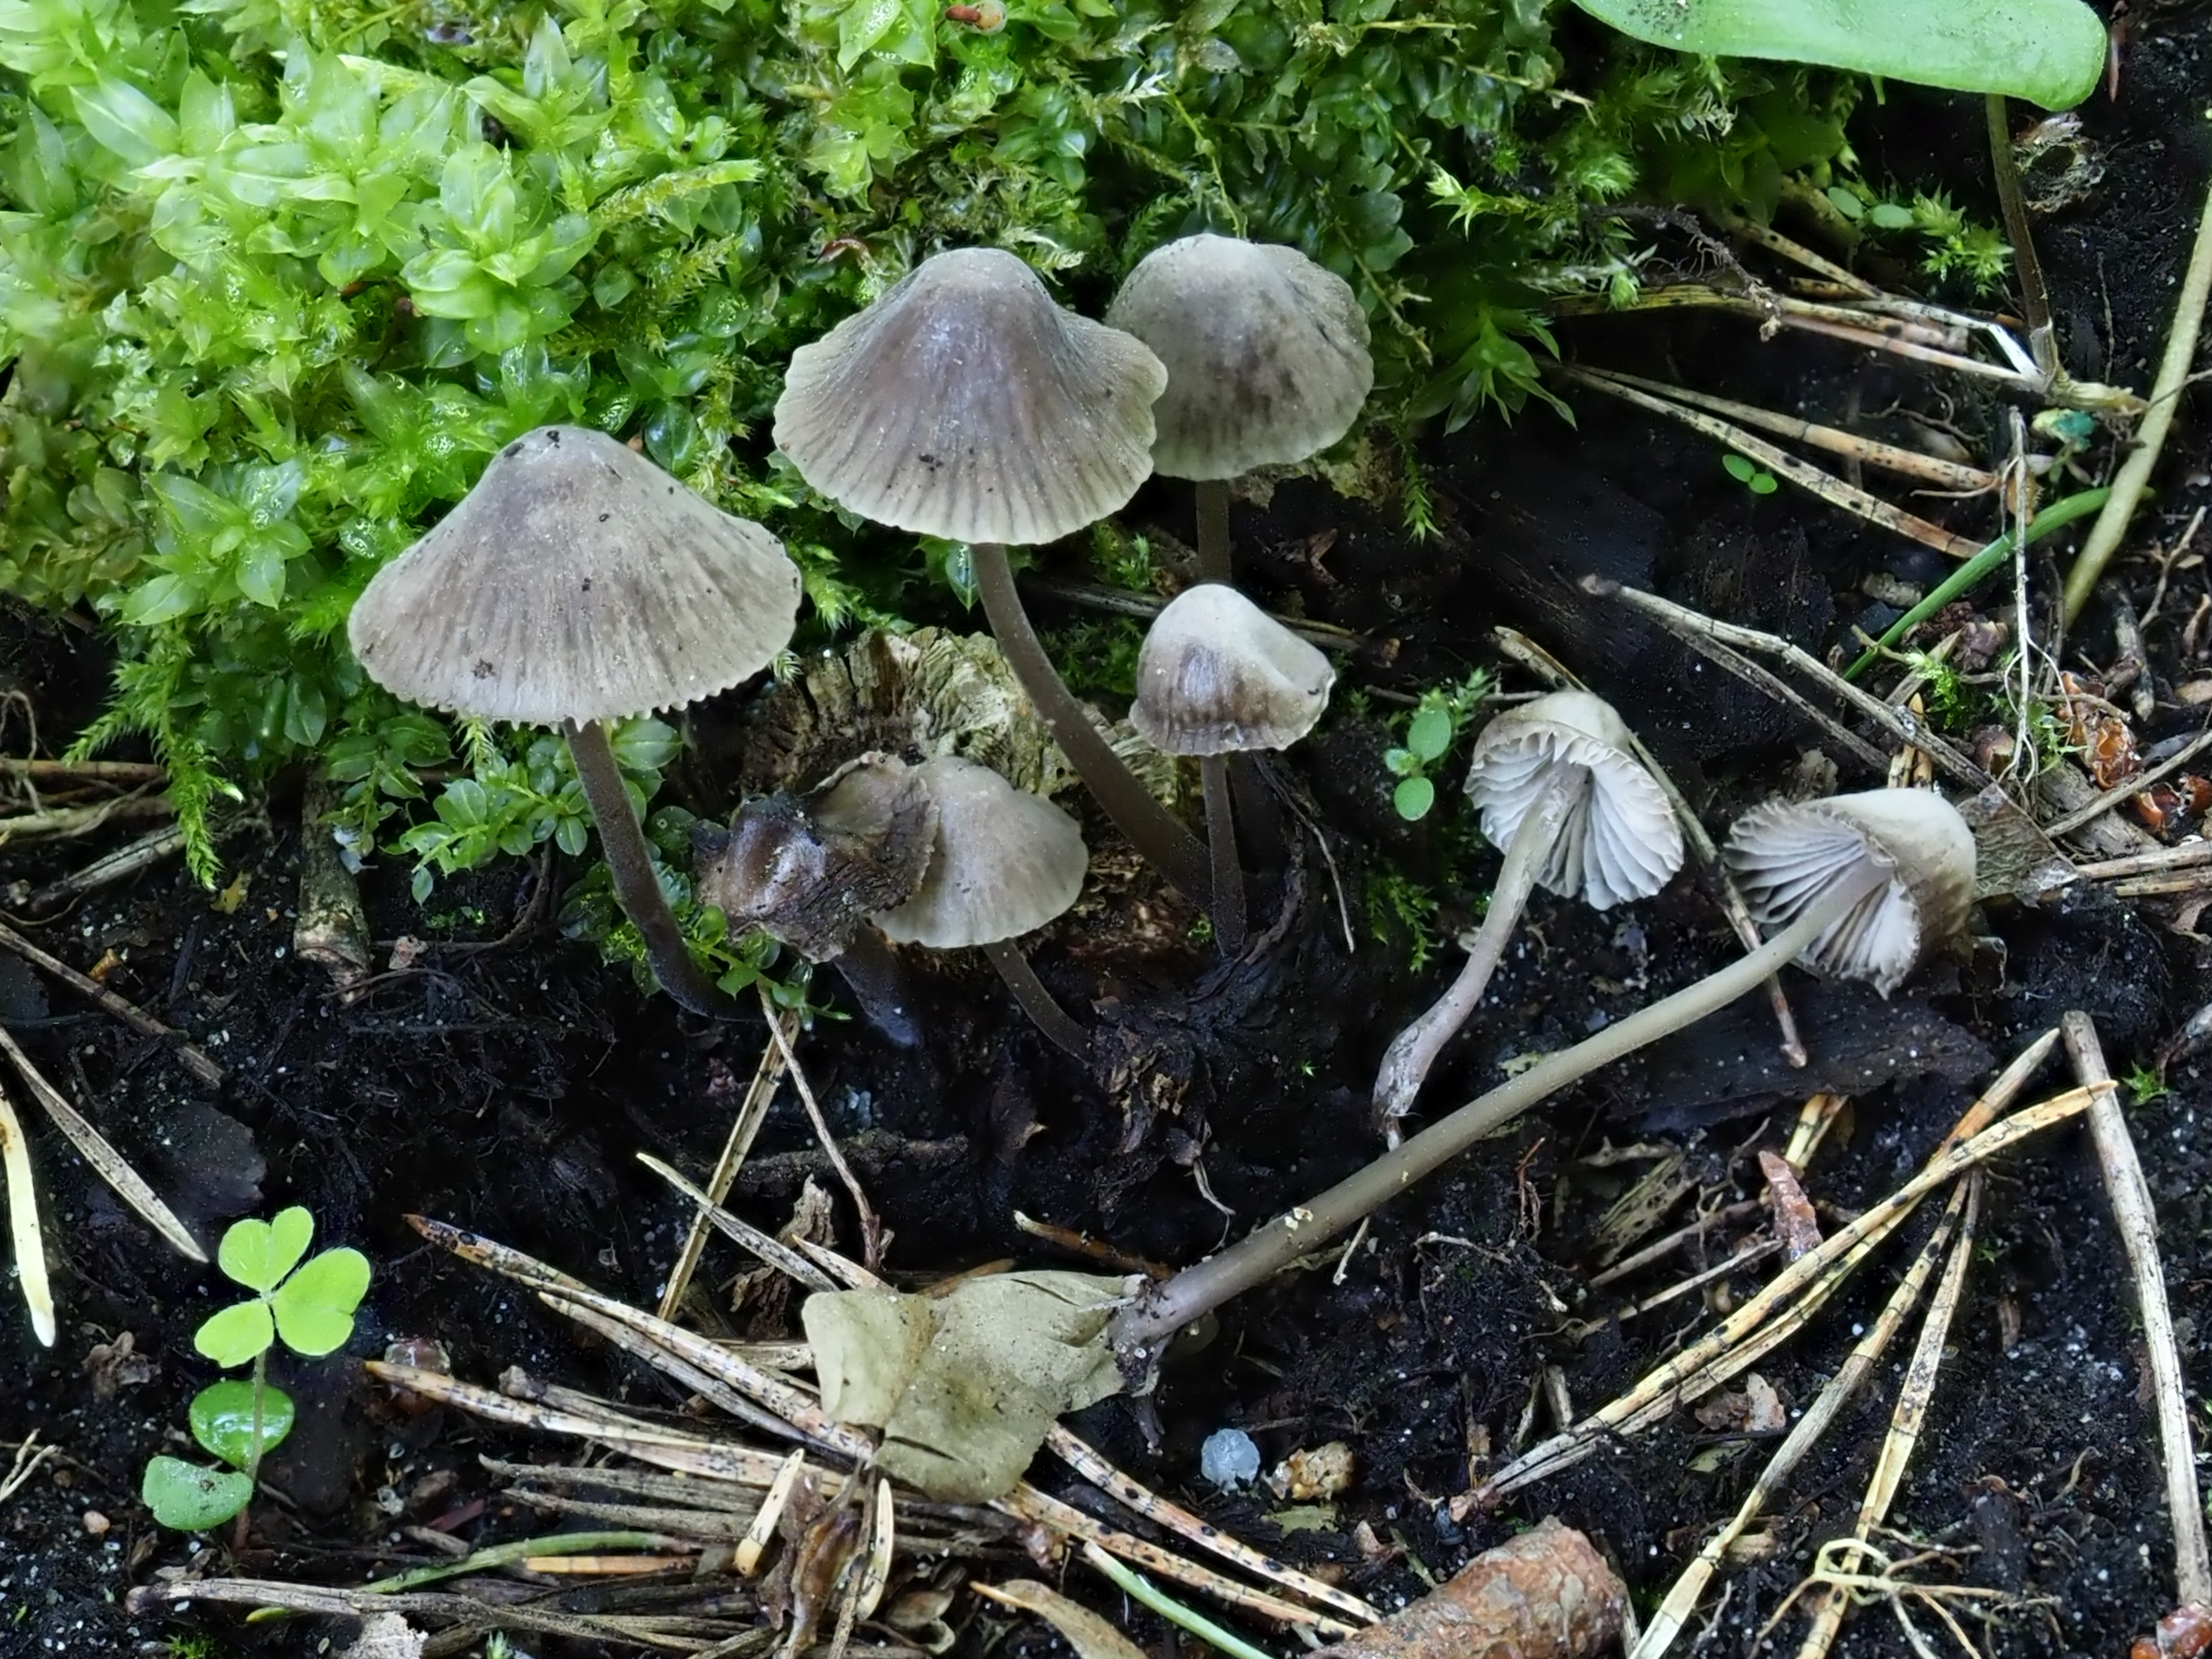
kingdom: Fungi
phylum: Basidiomycota
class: Agaricomycetes
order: Agaricales
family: Mycenaceae
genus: Mycena
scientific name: Mycena leptocephala
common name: Nitrous bonnet
